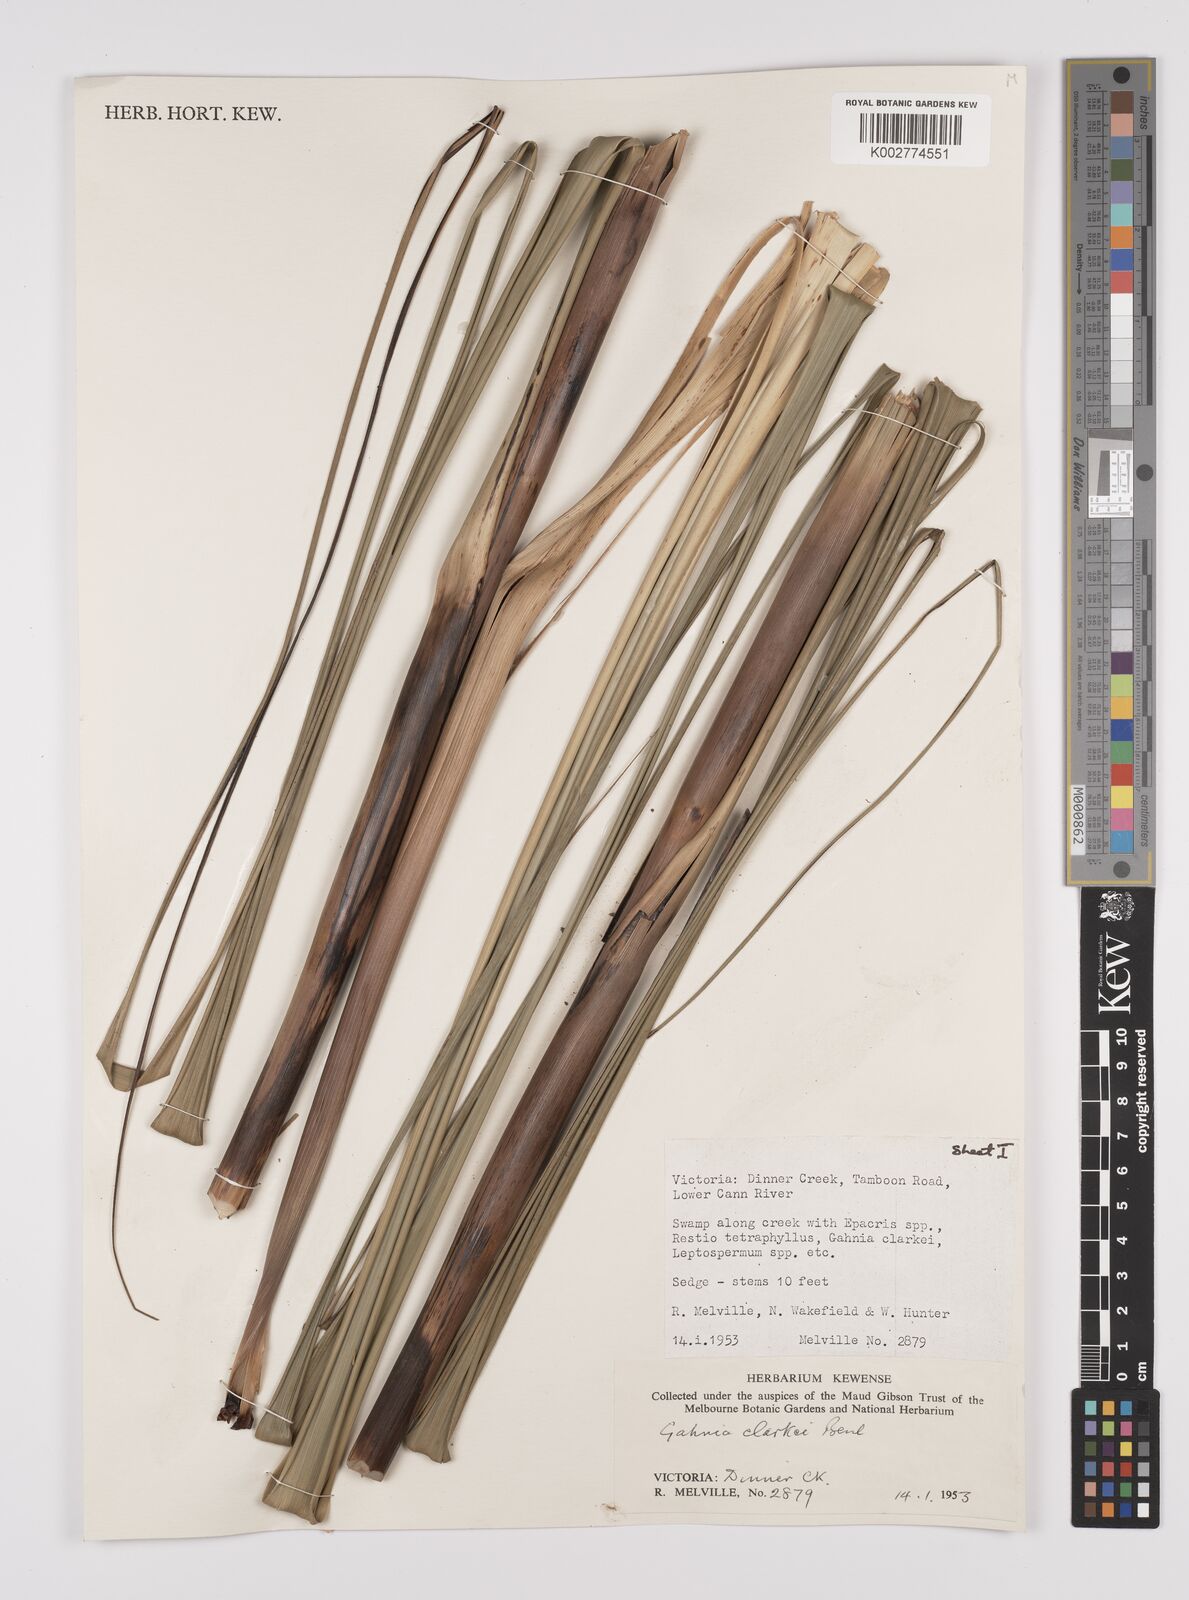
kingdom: Plantae
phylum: Tracheophyta
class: Liliopsida
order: Poales
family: Cyperaceae
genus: Gahnia
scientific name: Gahnia clarkei
